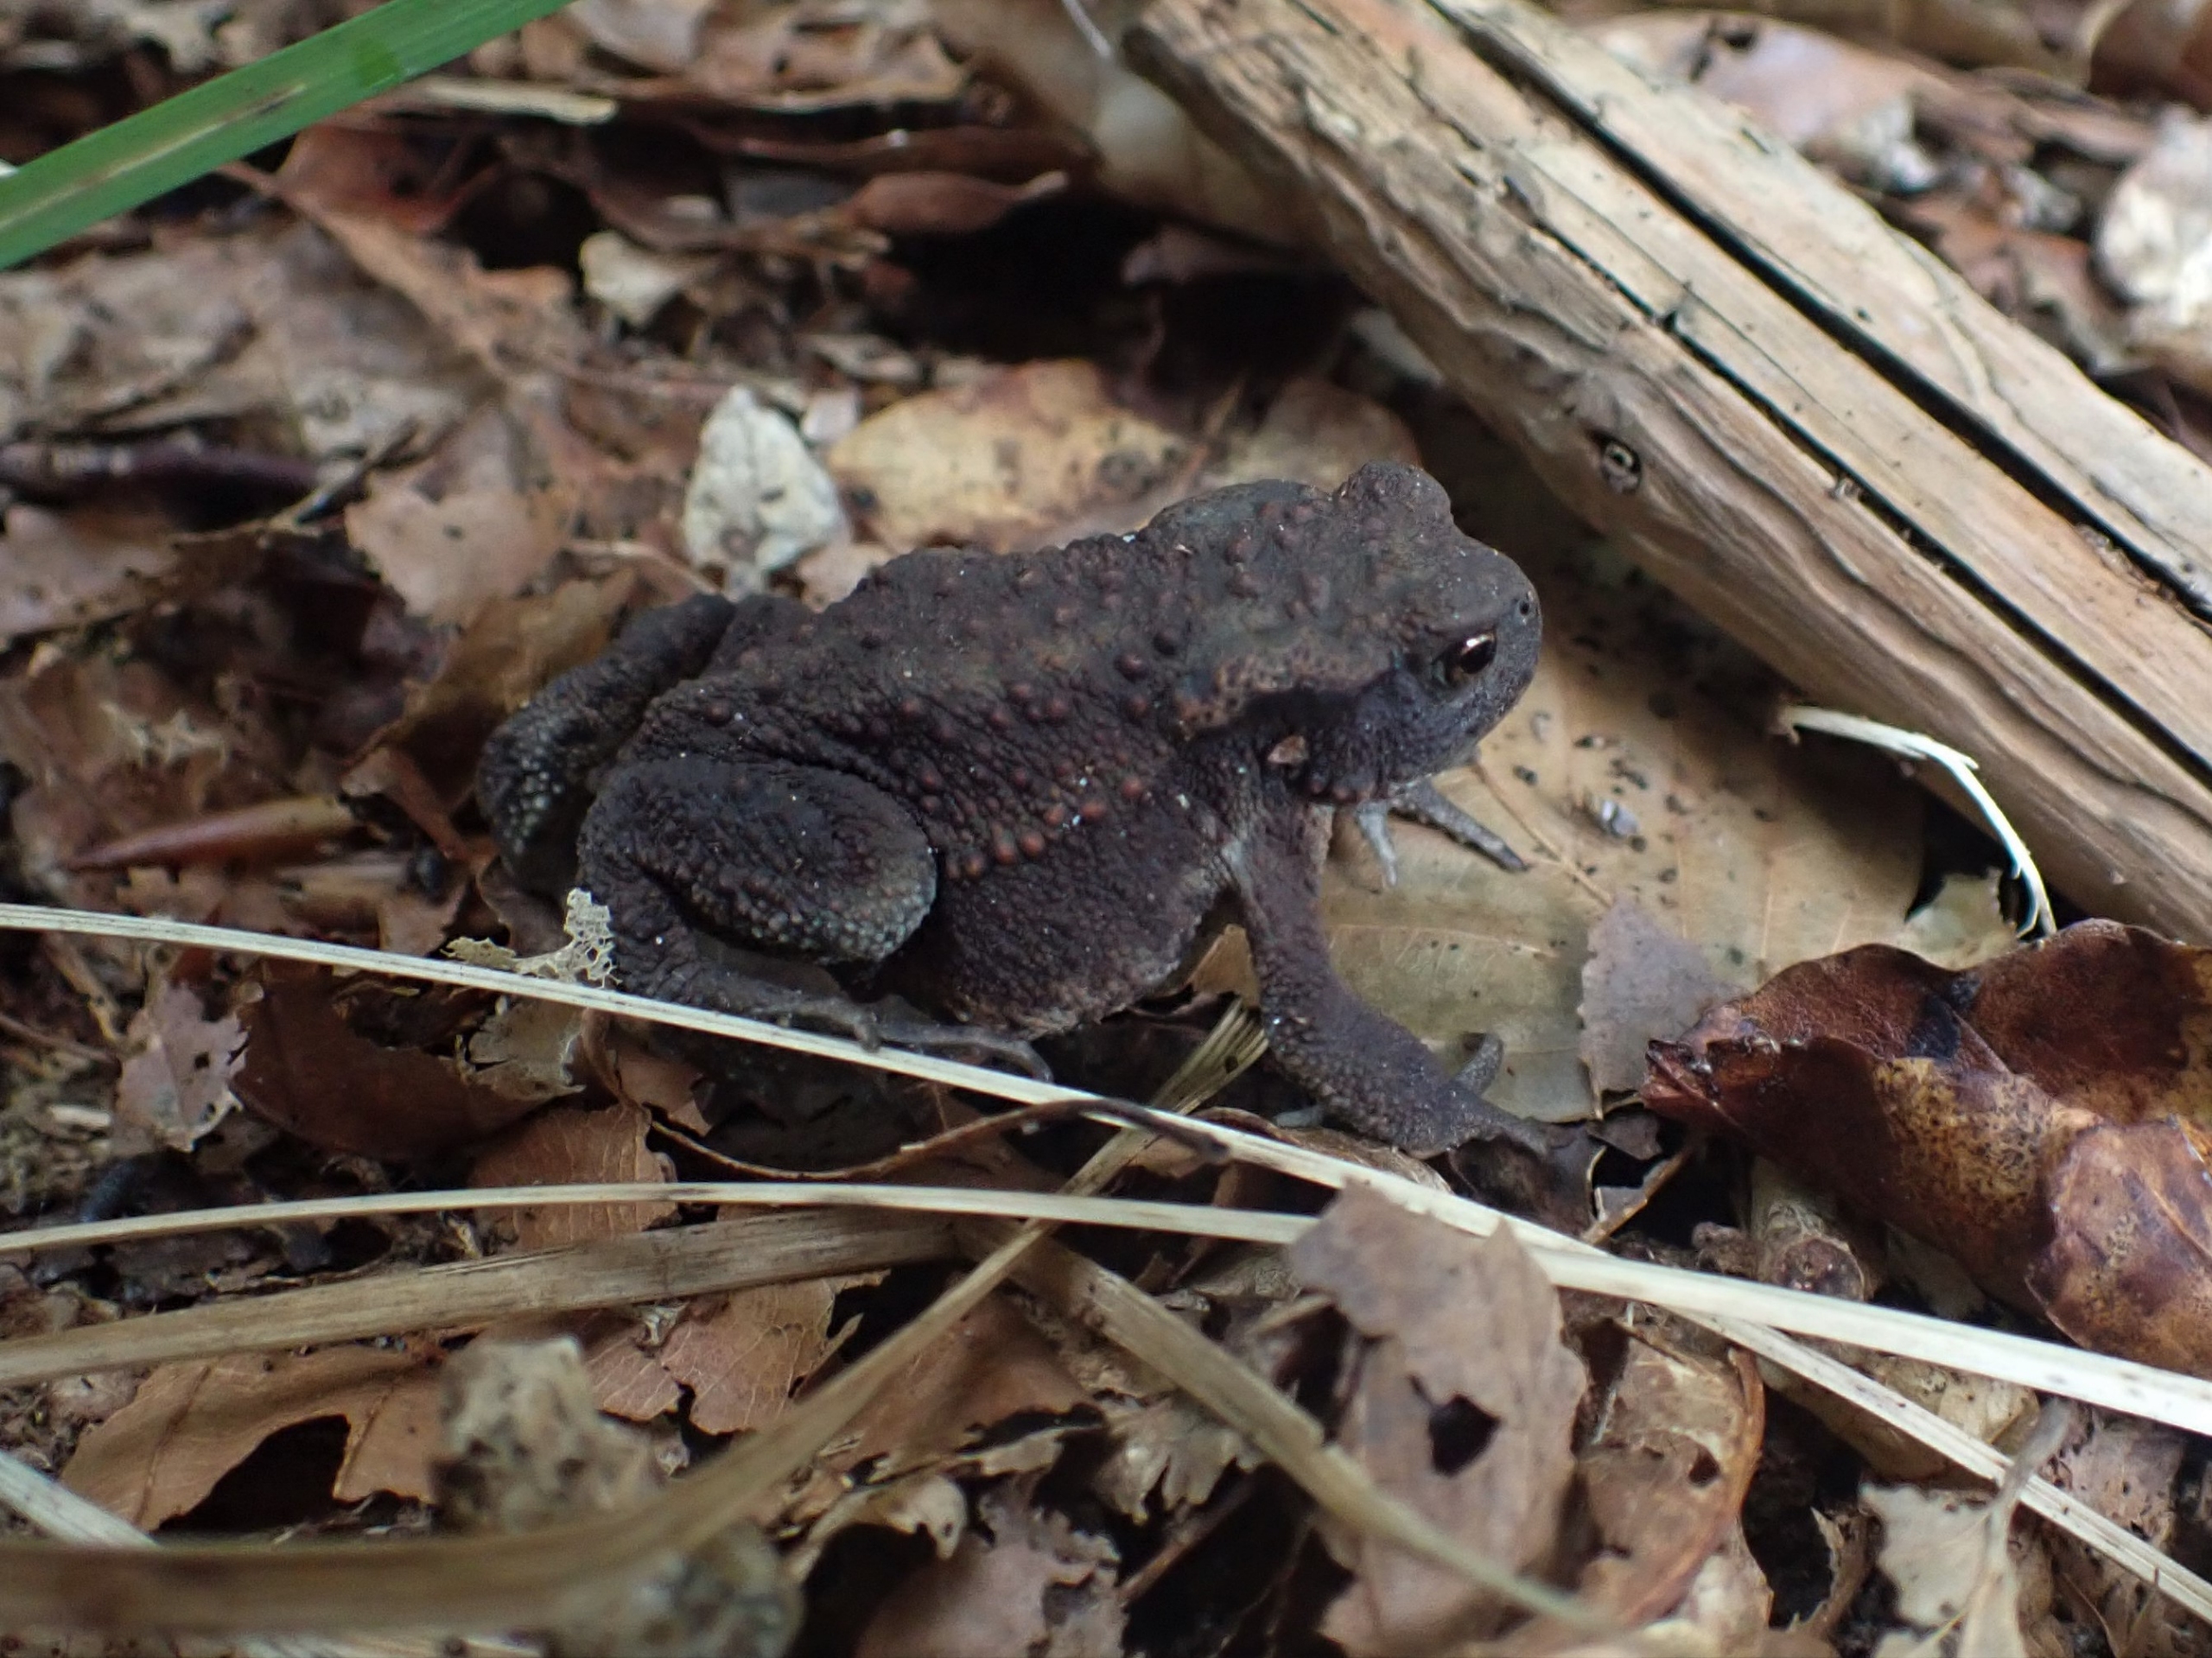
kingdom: Animalia
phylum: Chordata
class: Amphibia
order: Anura
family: Bufonidae
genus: Bufo
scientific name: Bufo bufo
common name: Skrubtudse
